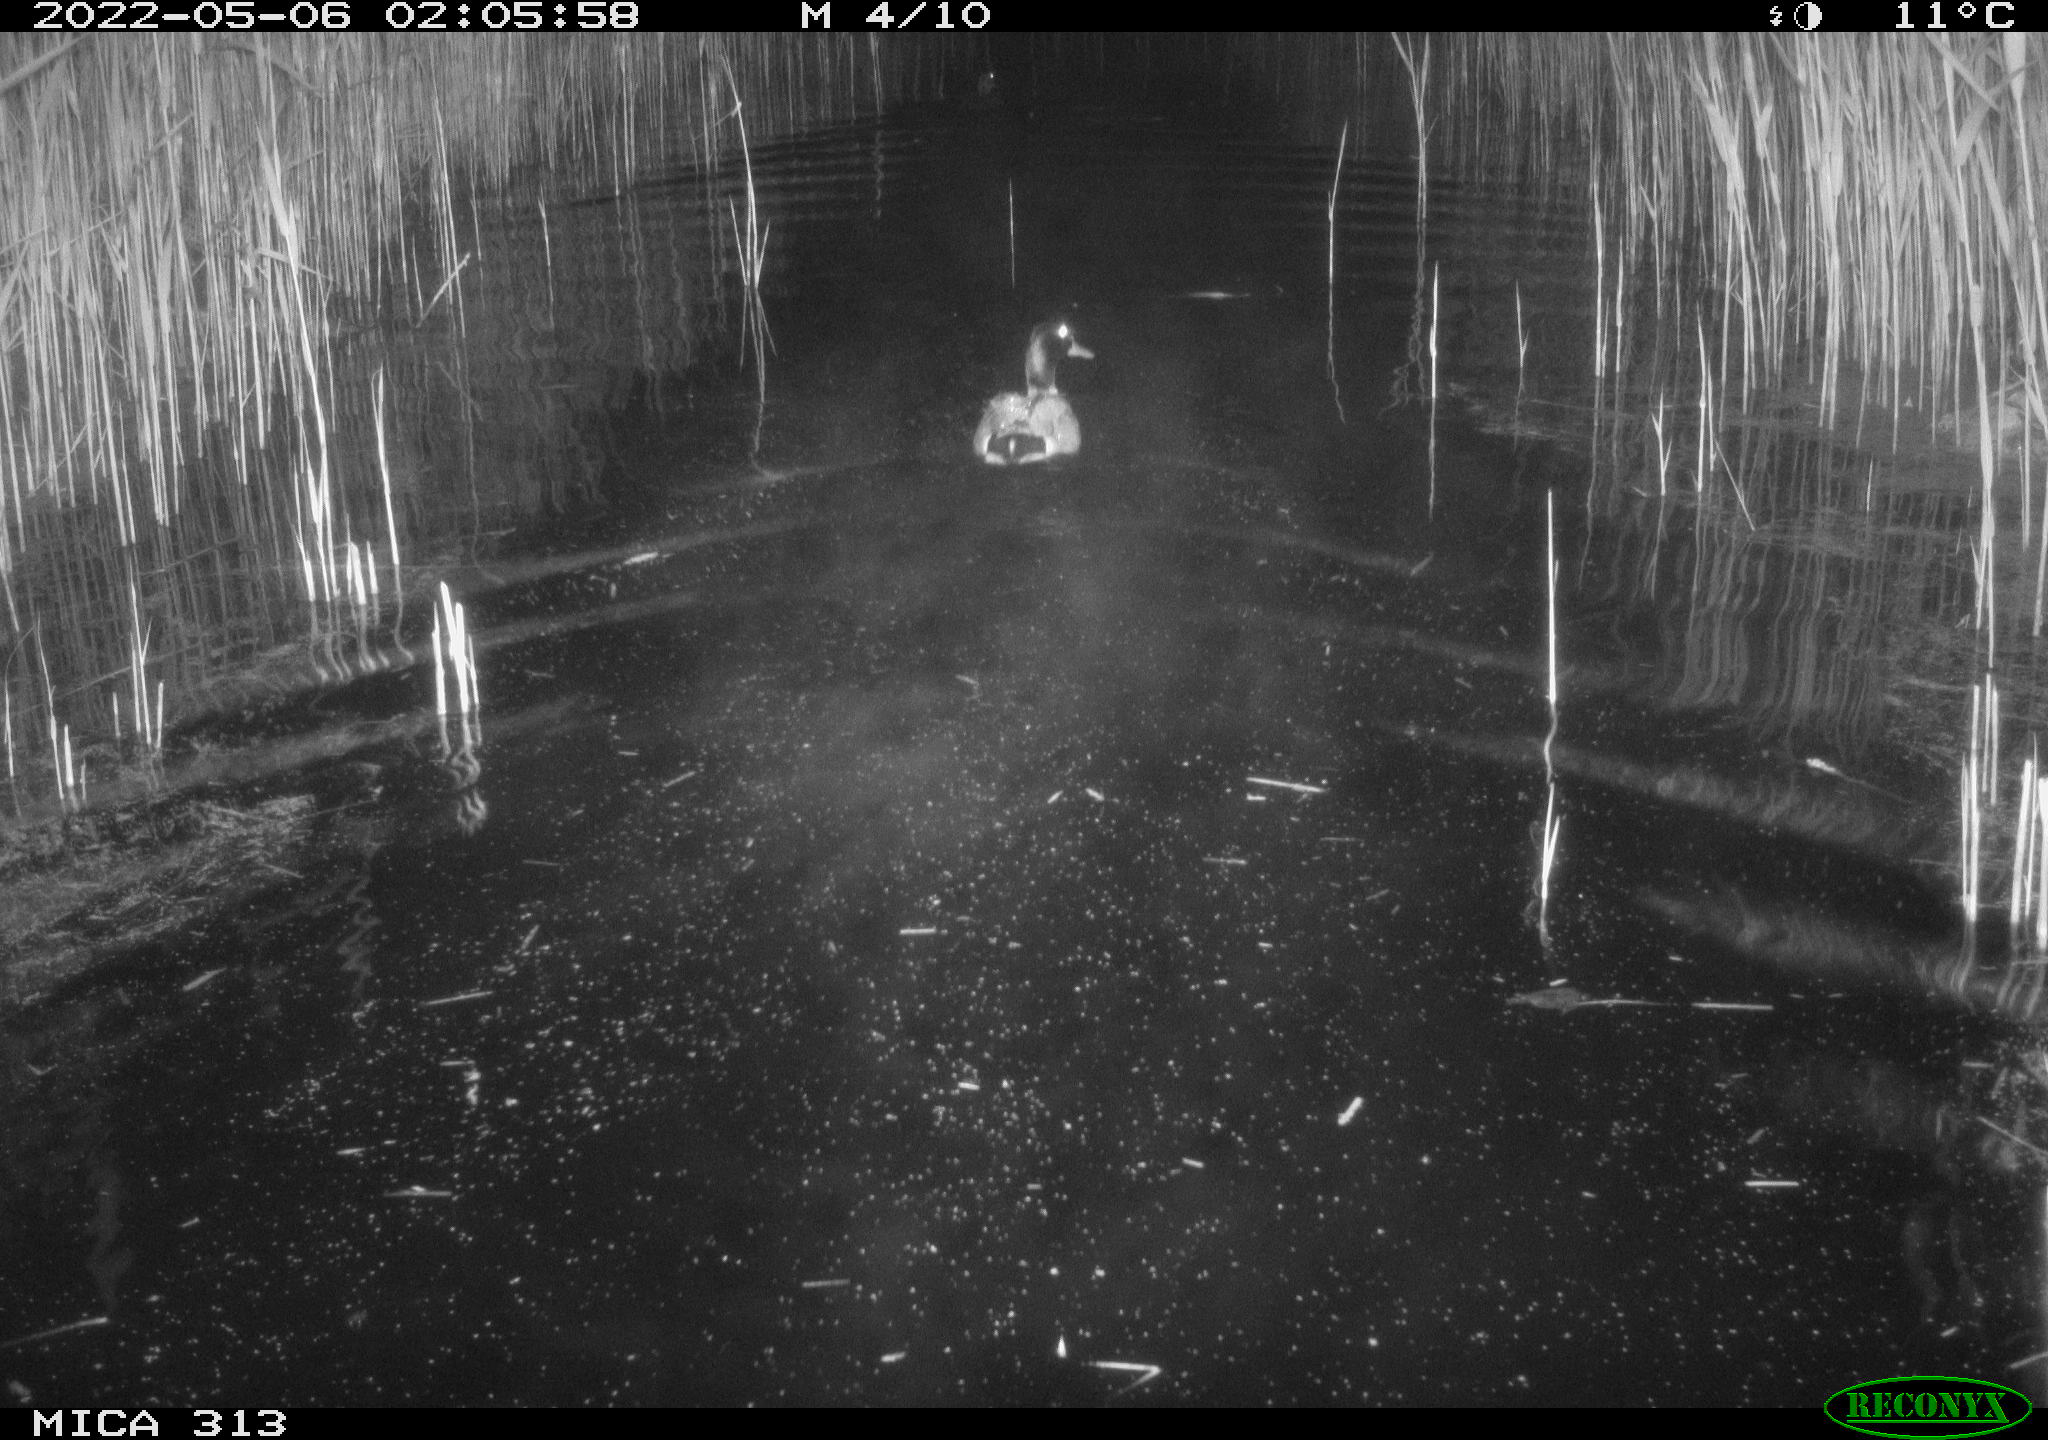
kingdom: Animalia
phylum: Chordata
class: Aves
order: Anseriformes
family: Anatidae
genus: Anas
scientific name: Anas platyrhynchos
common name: Mallard
